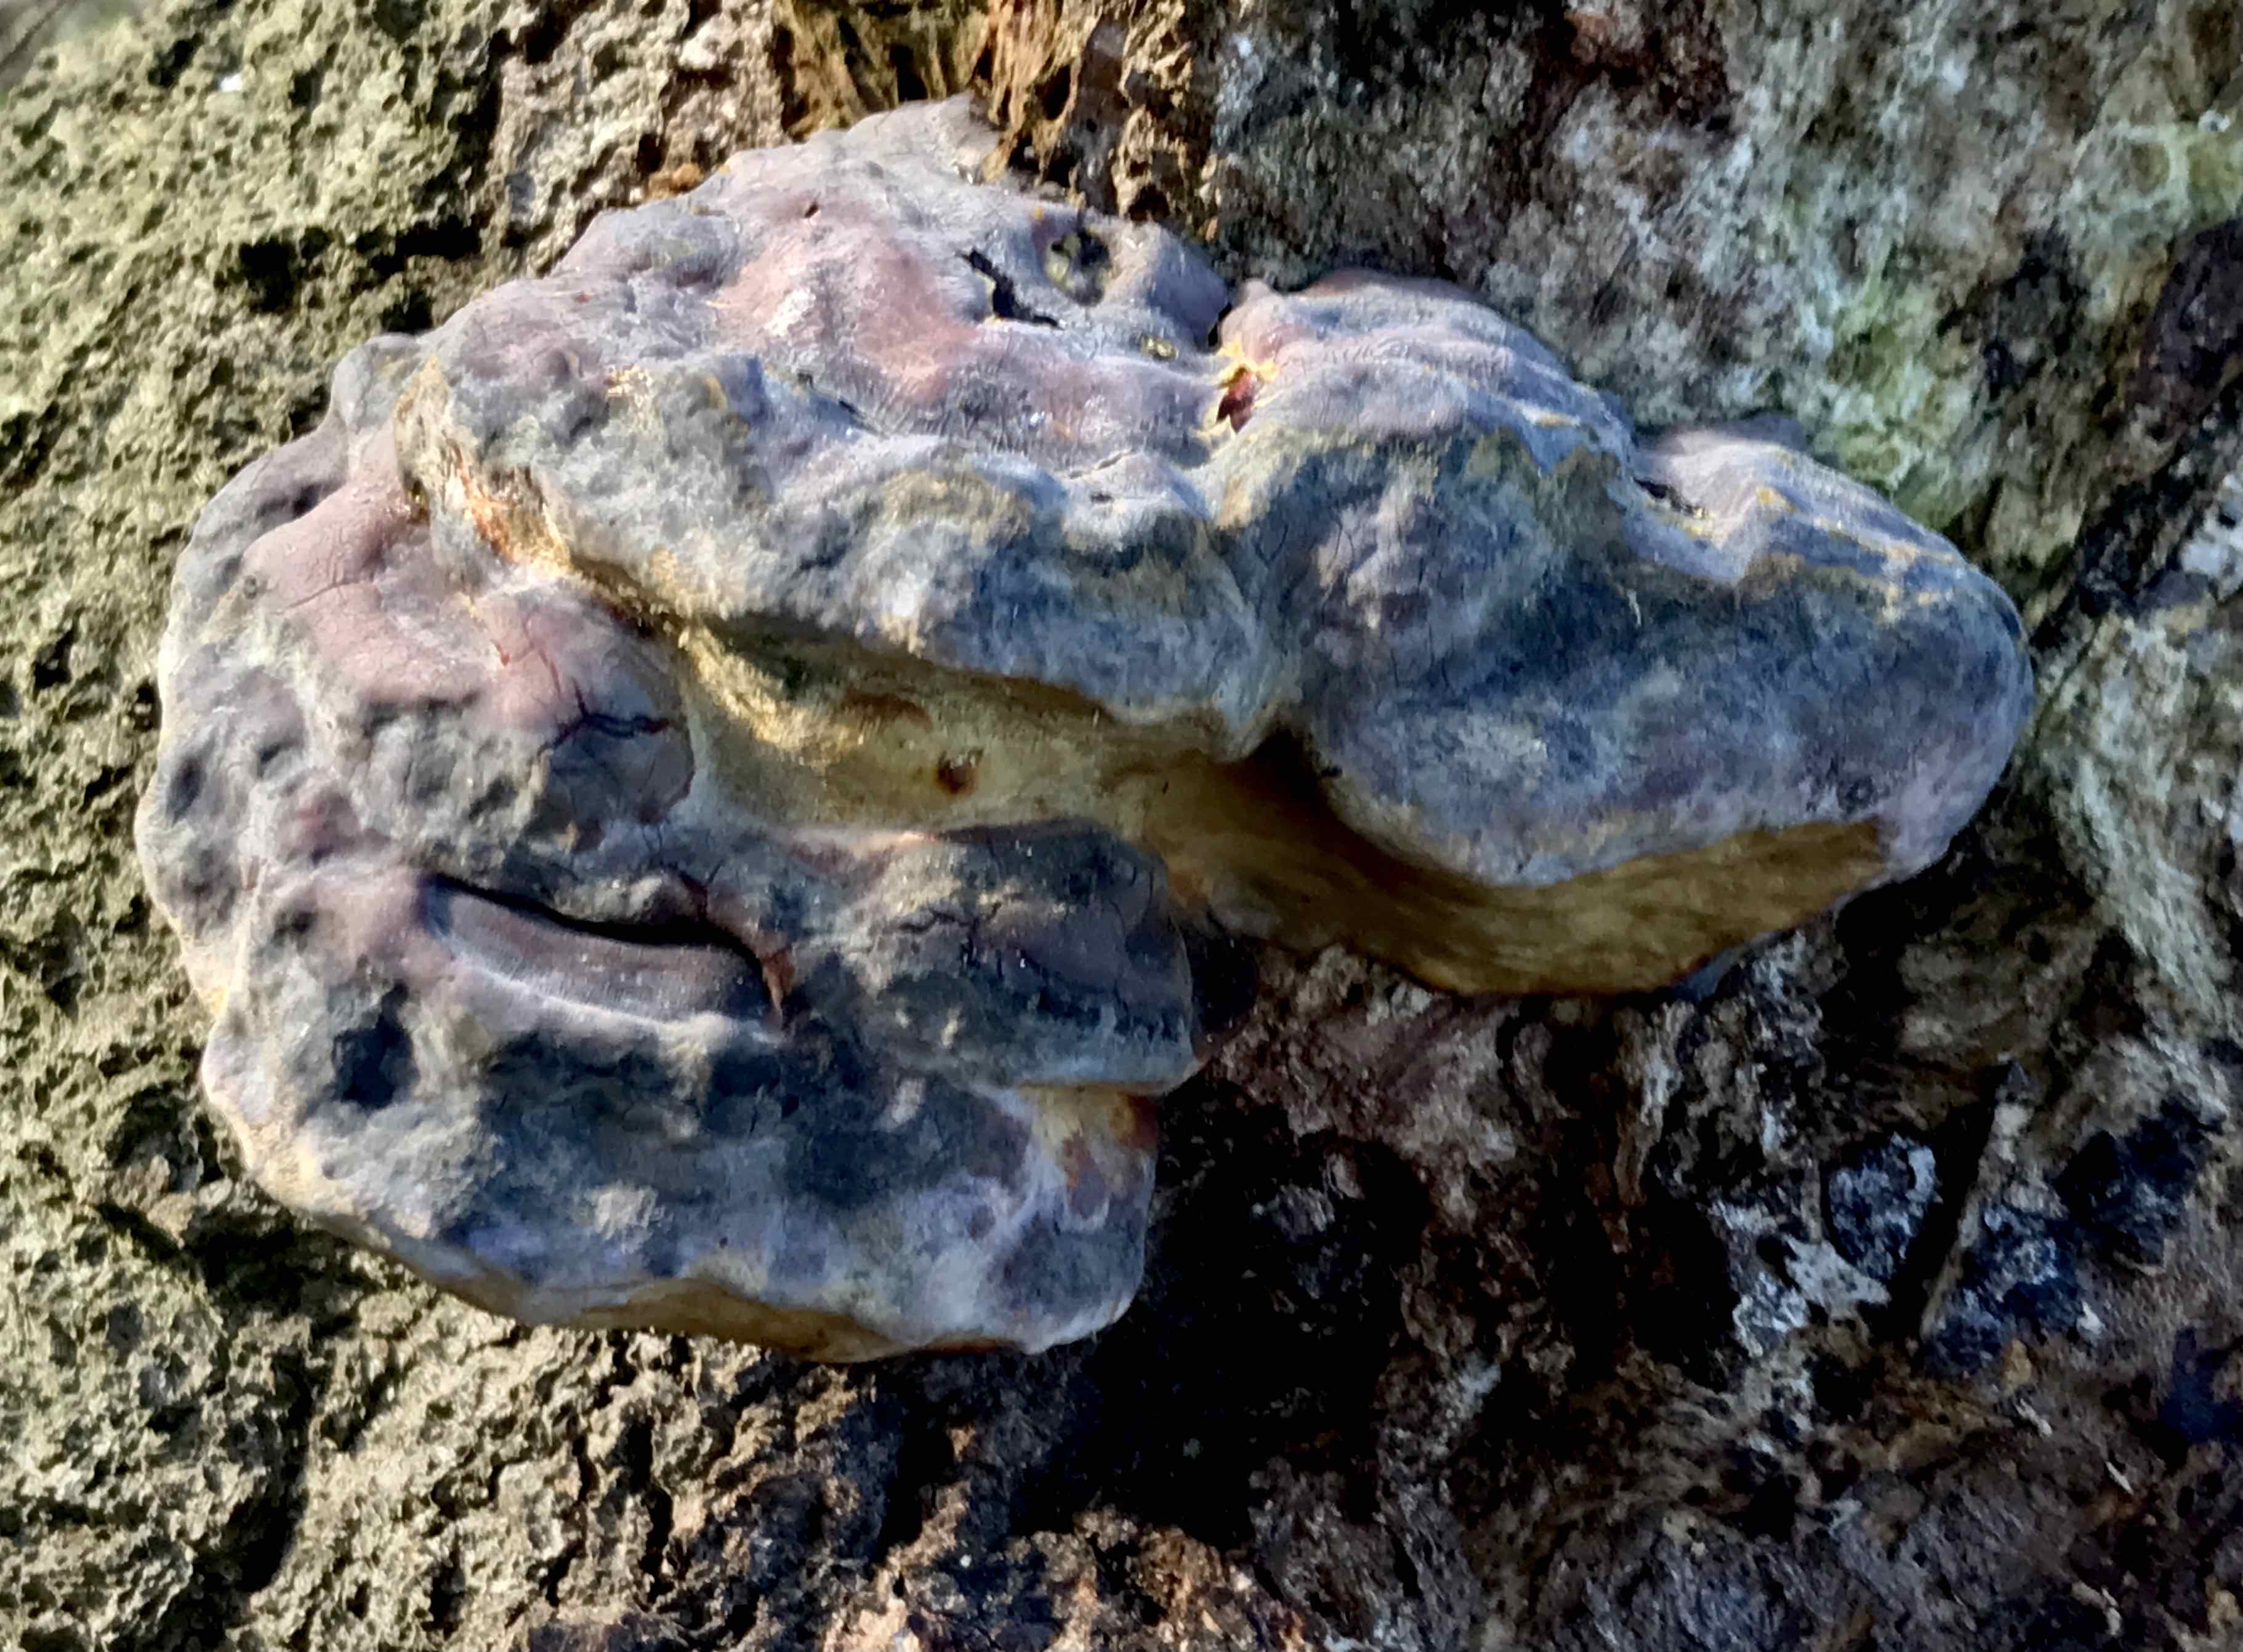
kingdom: Fungi
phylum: Basidiomycota
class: Agaricomycetes
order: Polyporales
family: Polyporaceae
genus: Ganoderma
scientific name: Ganoderma pfeifferi
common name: kobberrød lakporesvamp
